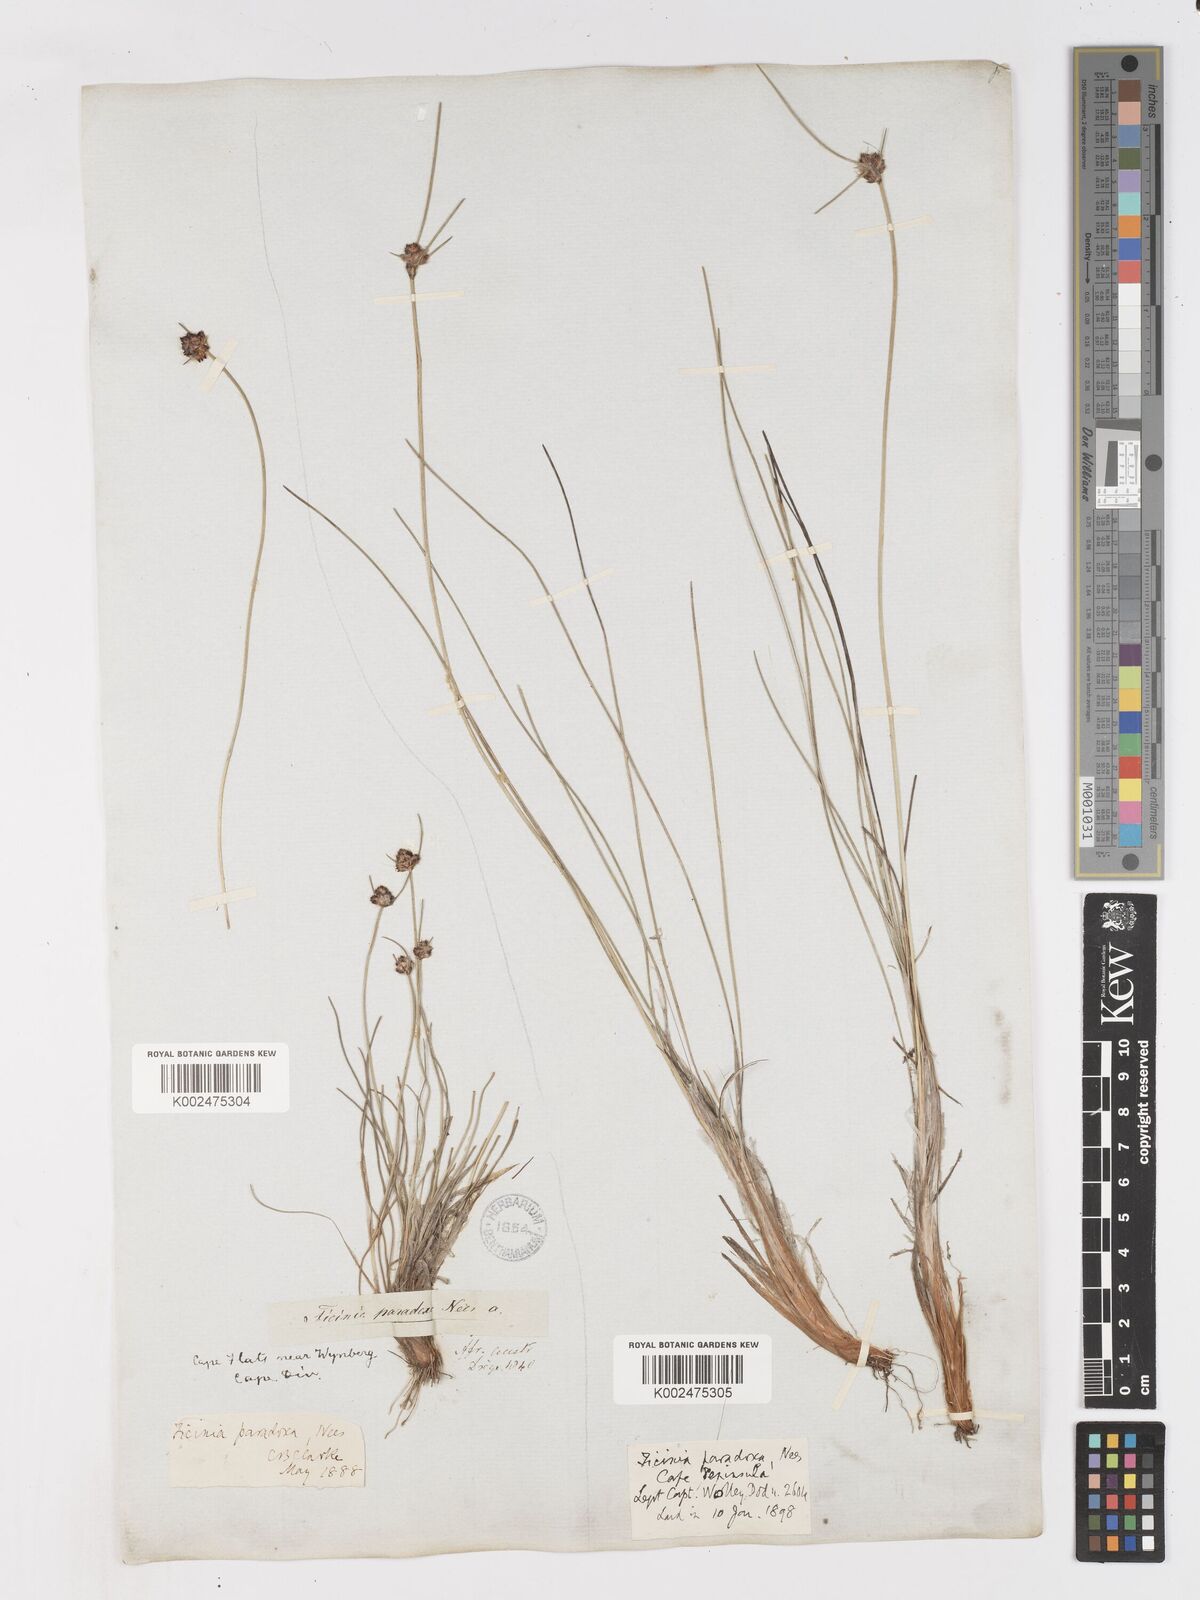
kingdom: Plantae
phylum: Tracheophyta
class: Liliopsida
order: Poales
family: Cyperaceae
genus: Ficinia
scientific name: Ficinia paradoxa
